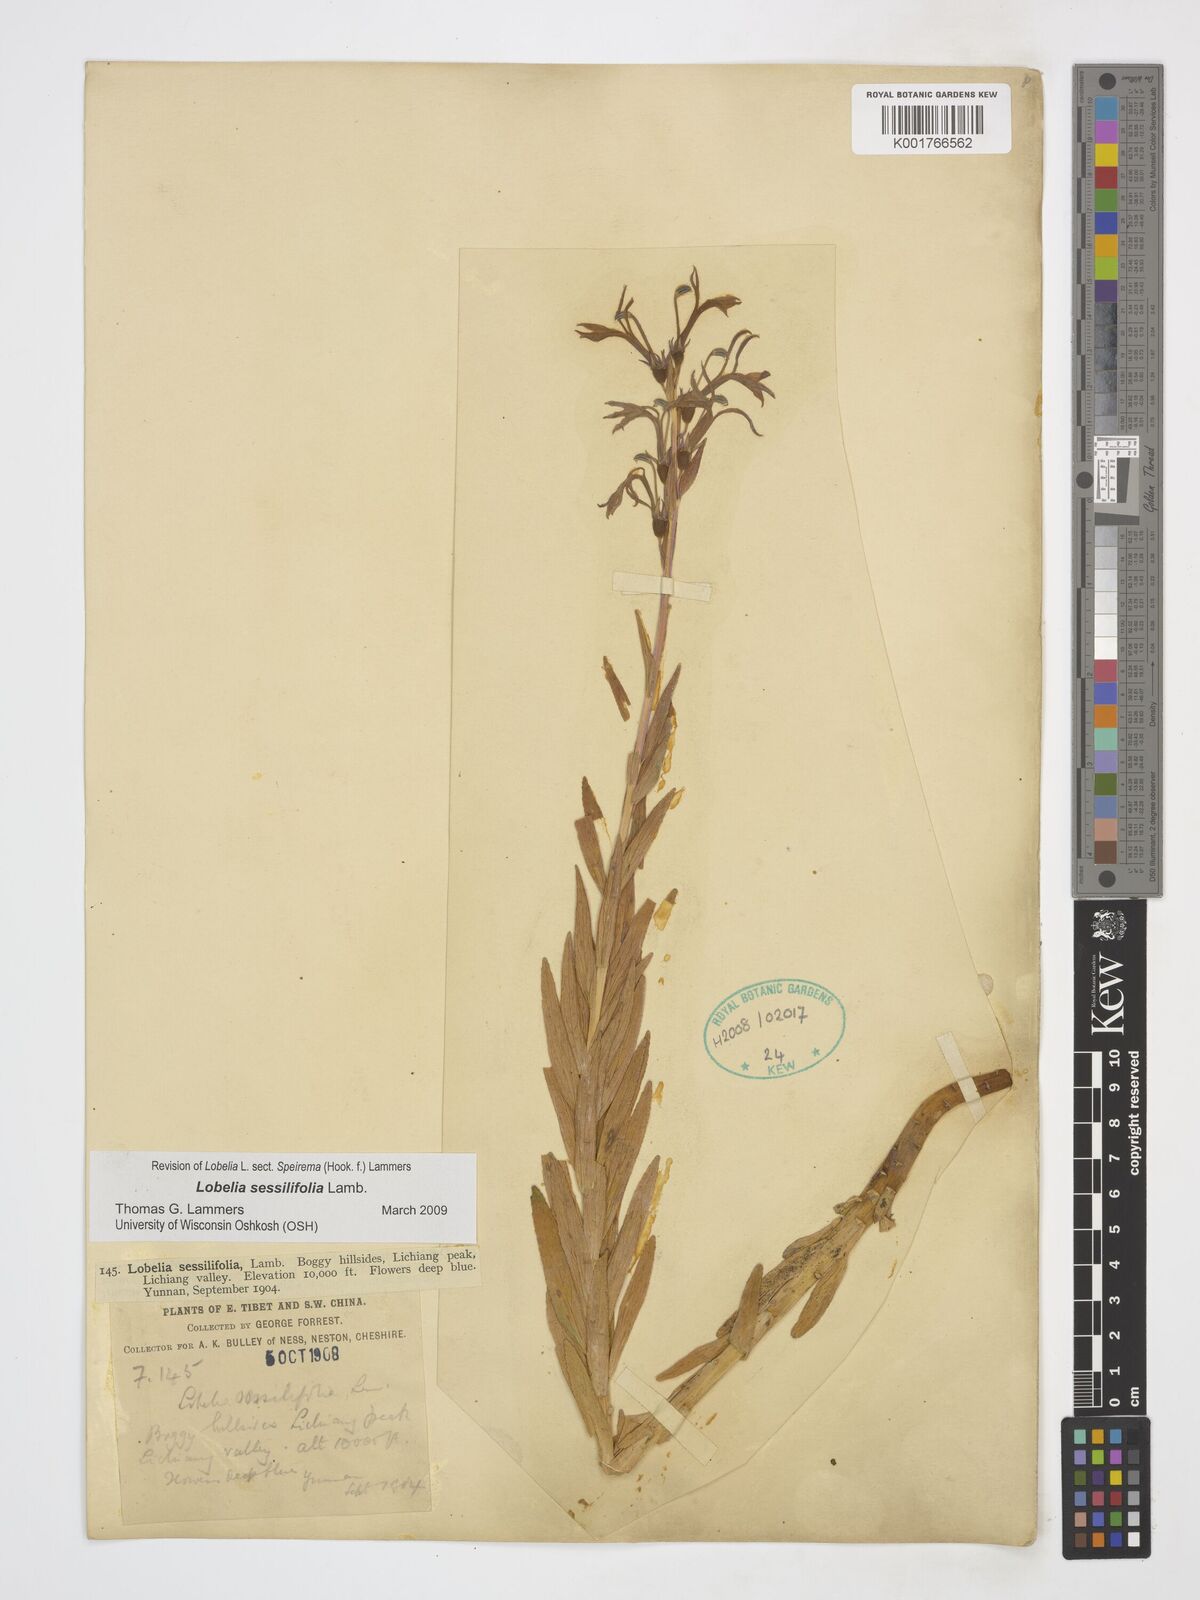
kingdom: Plantae
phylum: Tracheophyta
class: Magnoliopsida
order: Asterales
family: Campanulaceae
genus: Lobelia
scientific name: Lobelia sessilifolia
